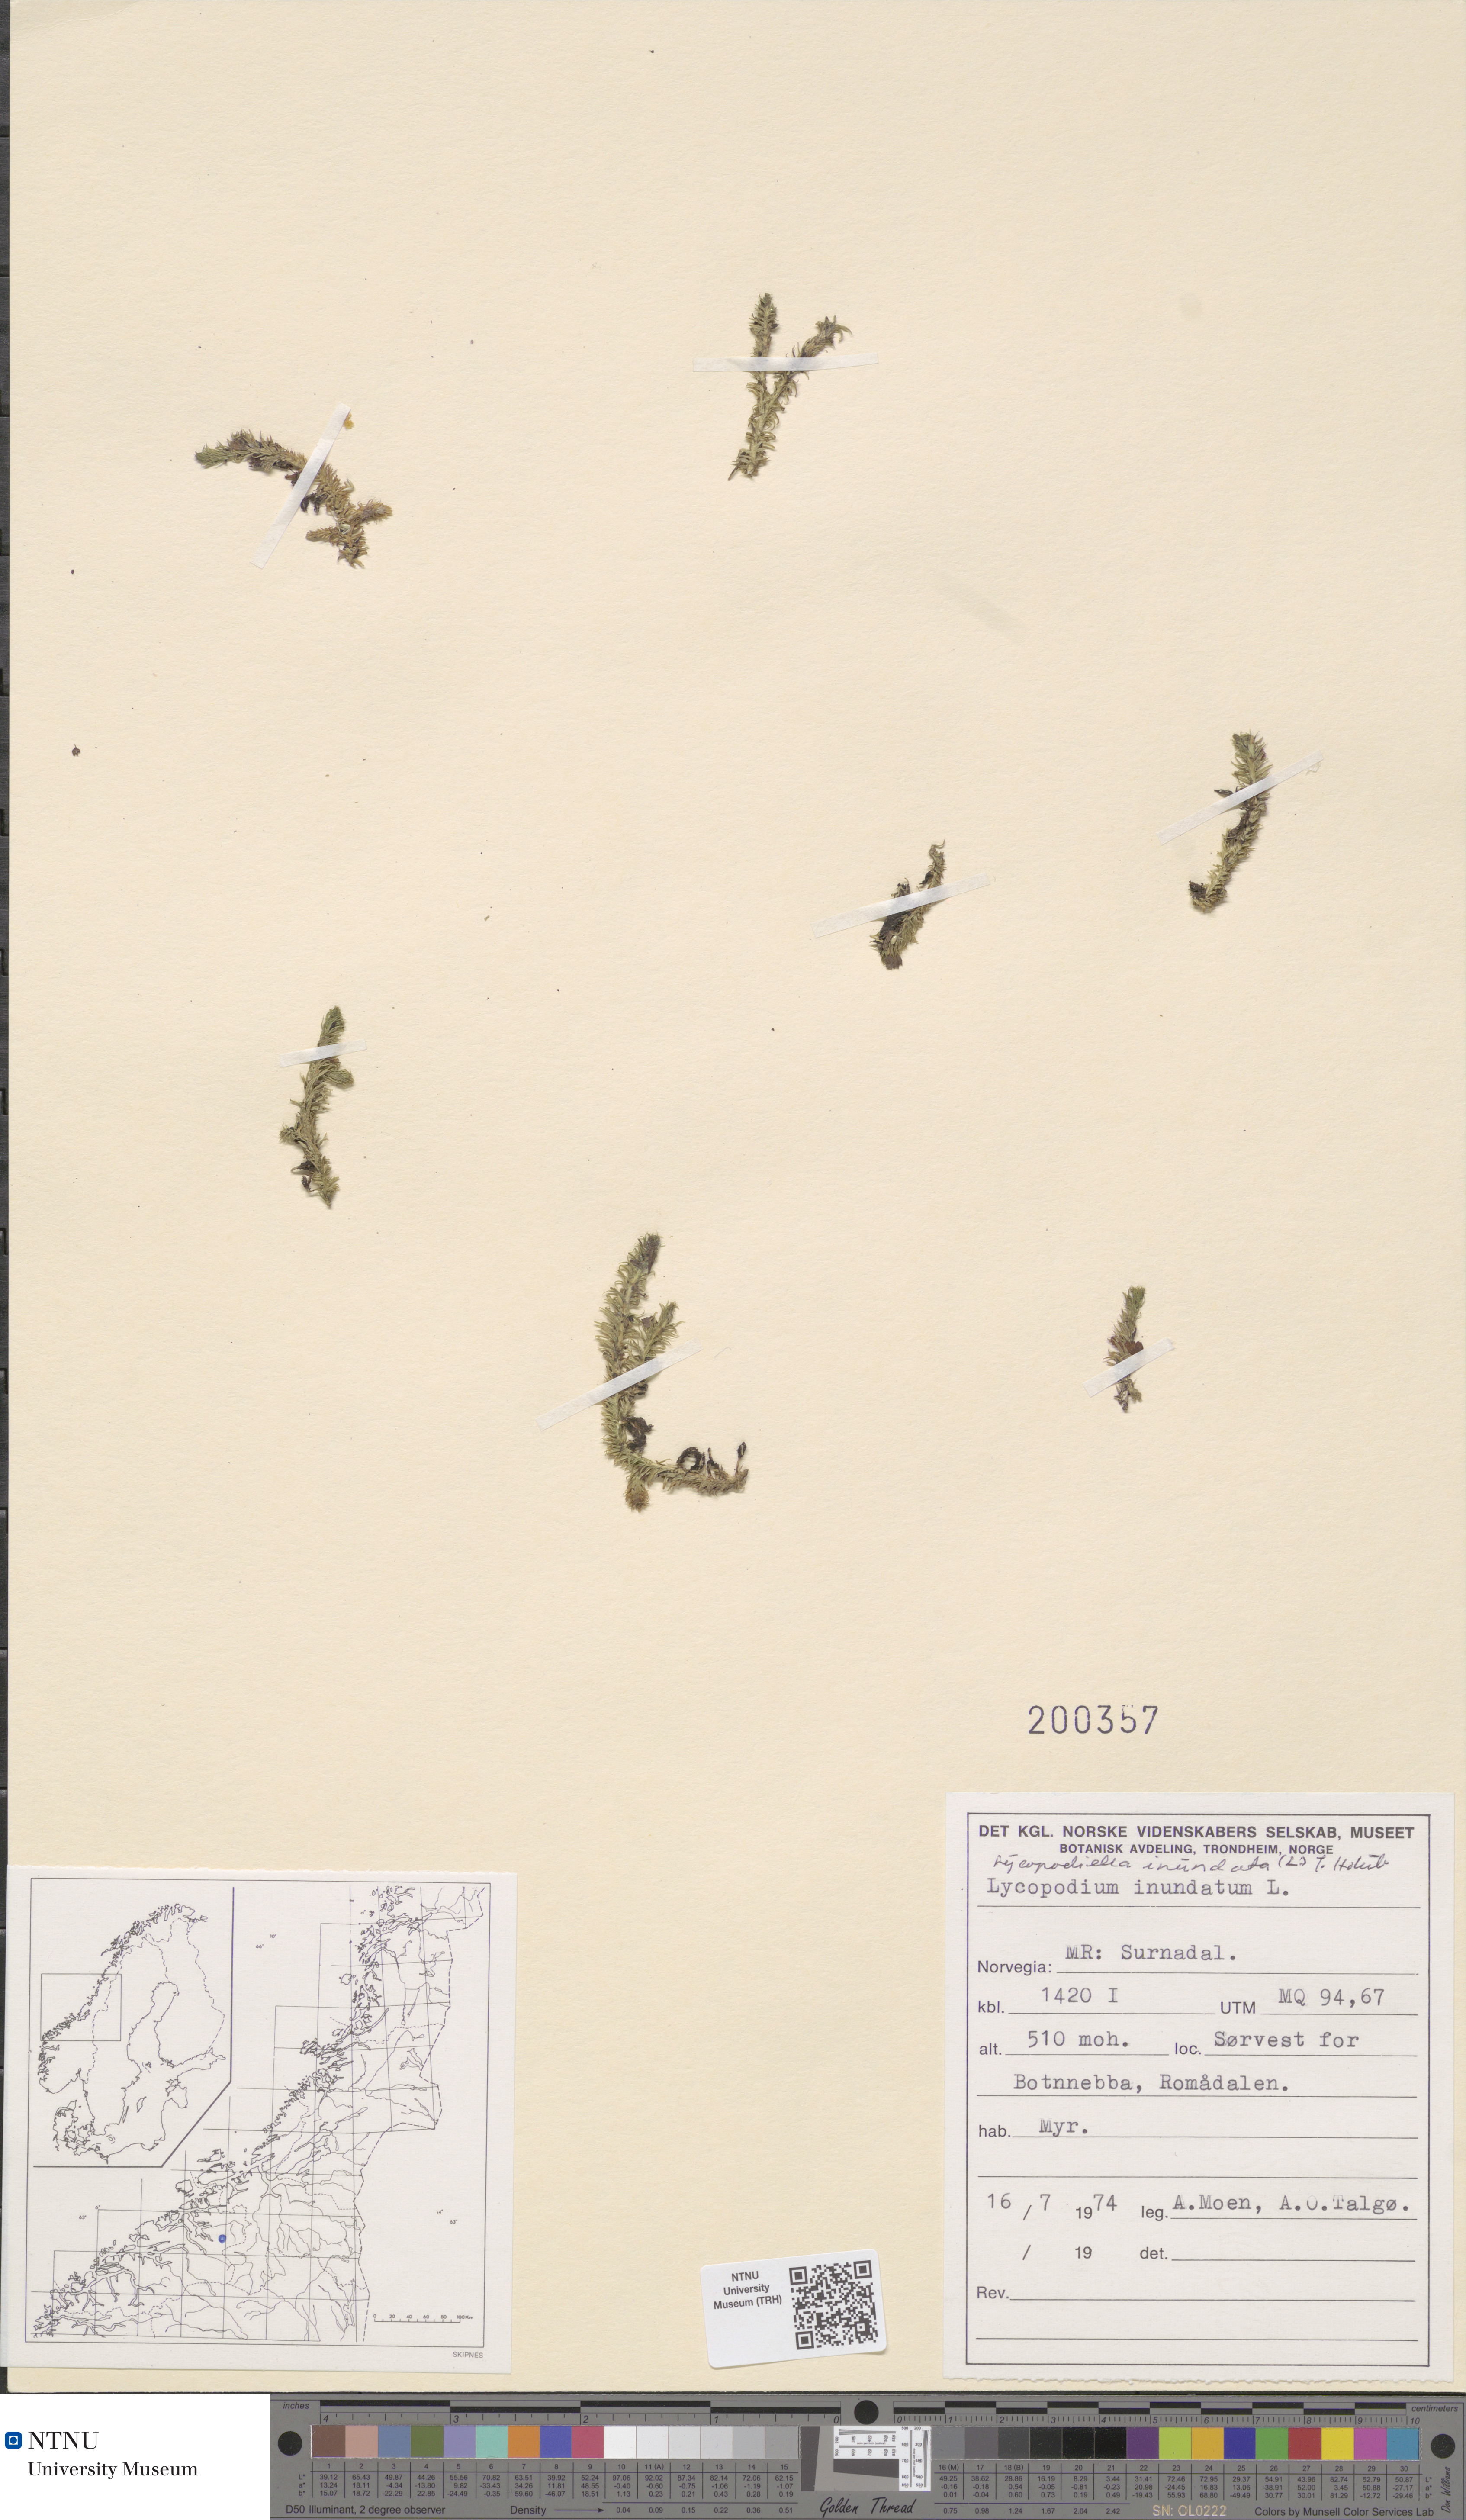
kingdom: Plantae
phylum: Tracheophyta
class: Lycopodiopsida
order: Lycopodiales
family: Lycopodiaceae
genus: Lycopodiella
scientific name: Lycopodiella inundata
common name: Marsh clubmoss
